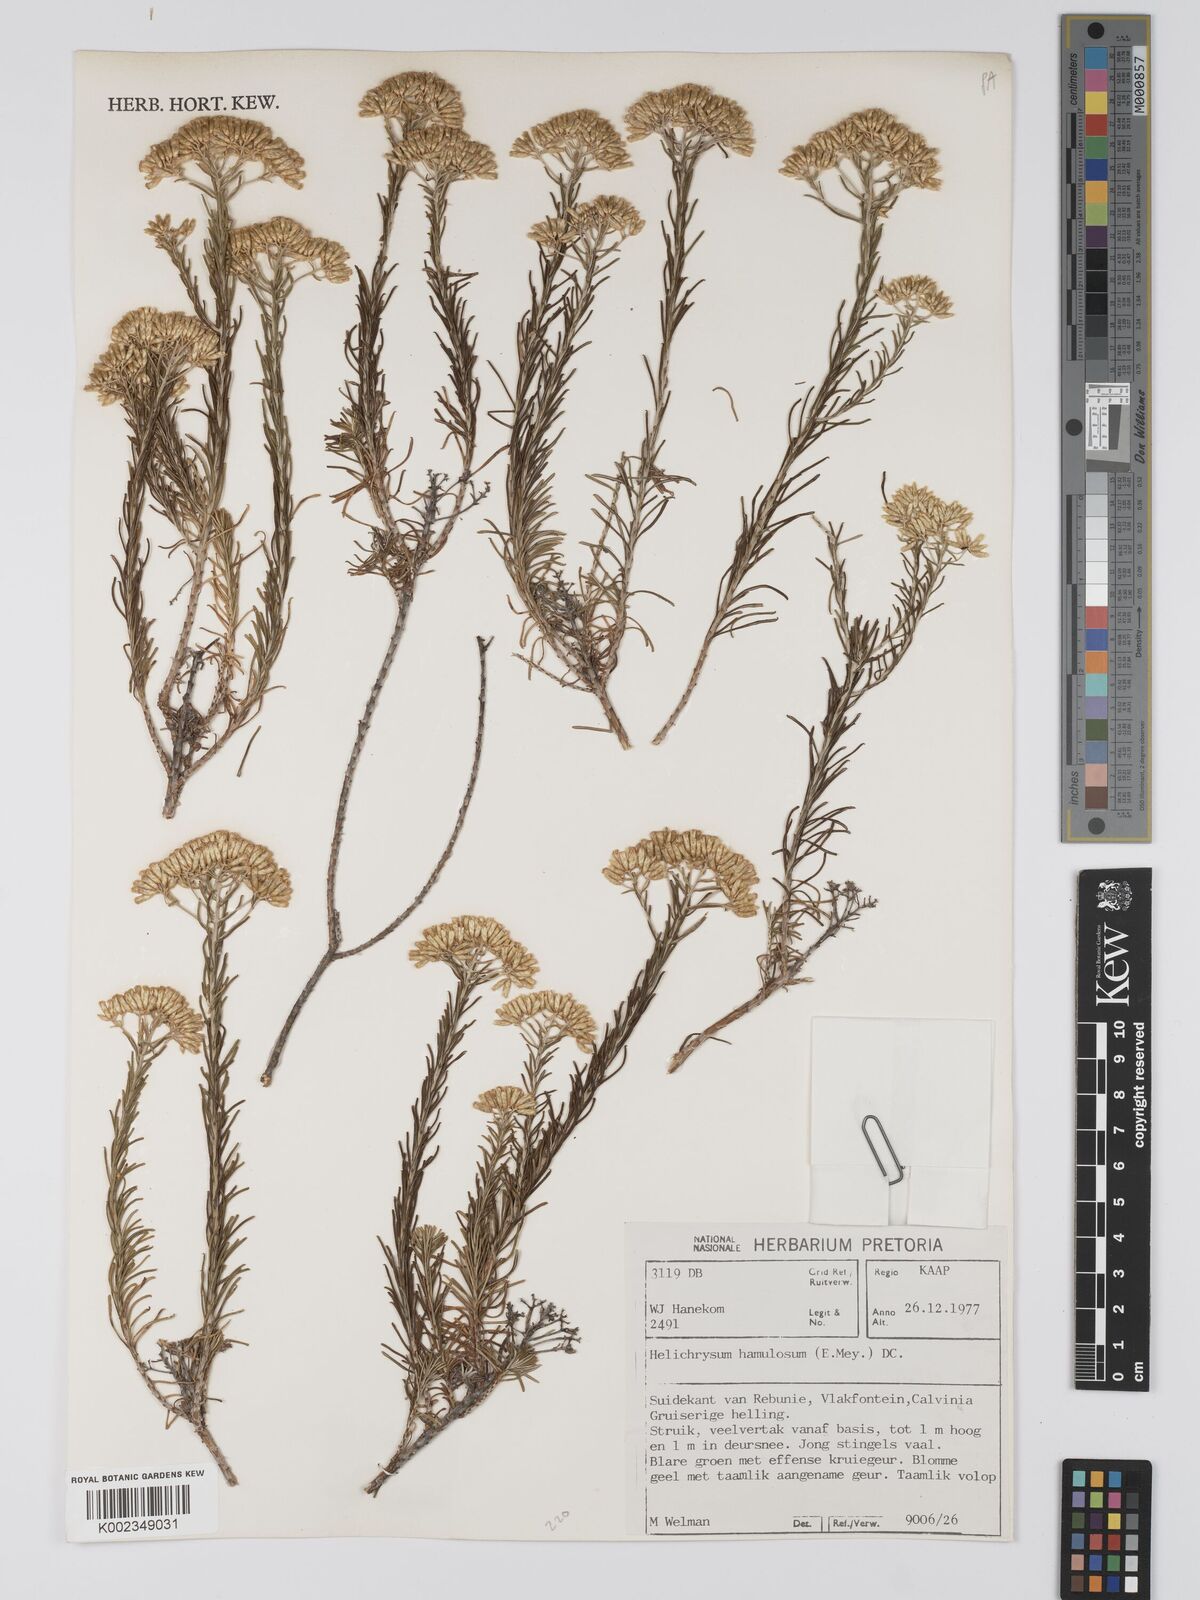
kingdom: Plantae
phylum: Tracheophyta
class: Magnoliopsida
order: Asterales
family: Asteraceae
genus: Helichrysum
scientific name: Helichrysum hamulosum
